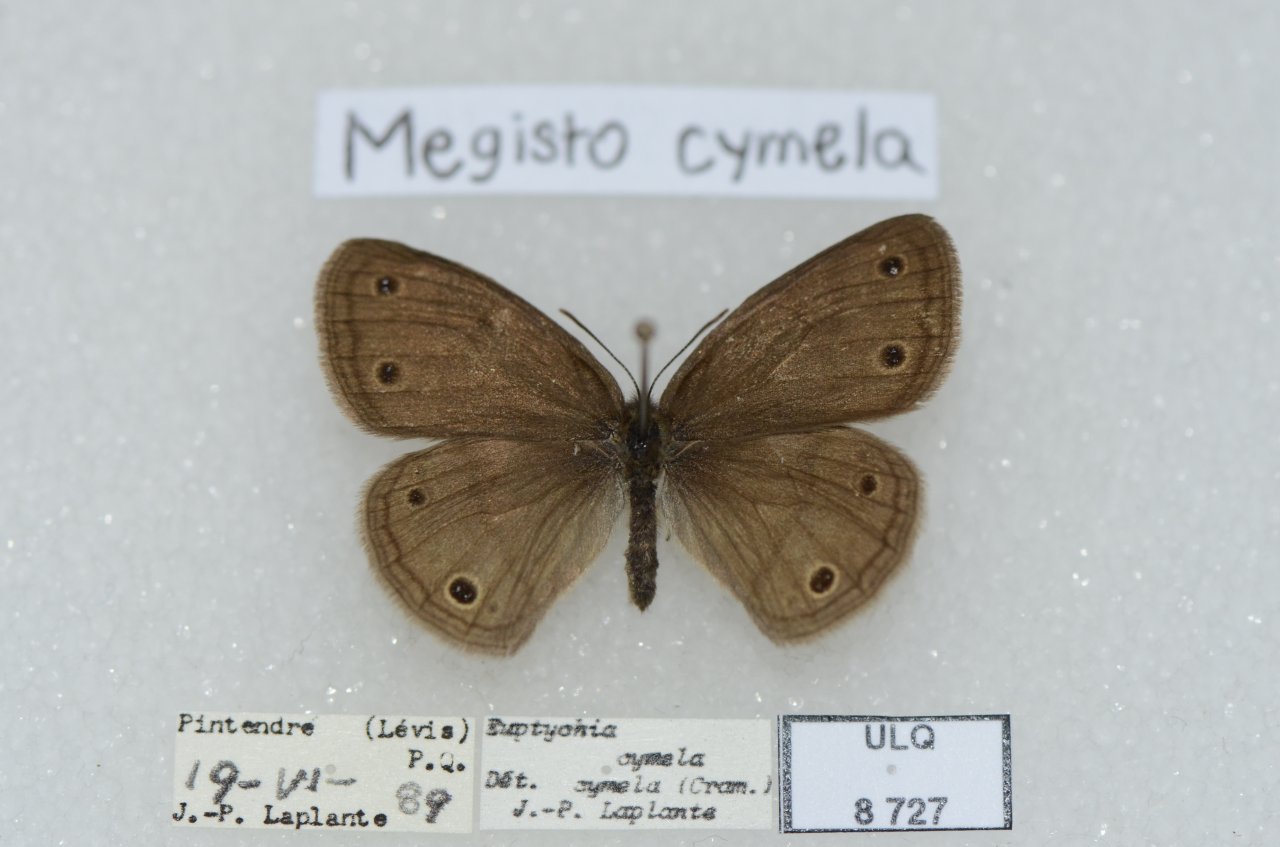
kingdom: Animalia
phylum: Arthropoda
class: Insecta
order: Lepidoptera
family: Nymphalidae
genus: Euptychia
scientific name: Euptychia cymela
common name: Little Wood Satyr
